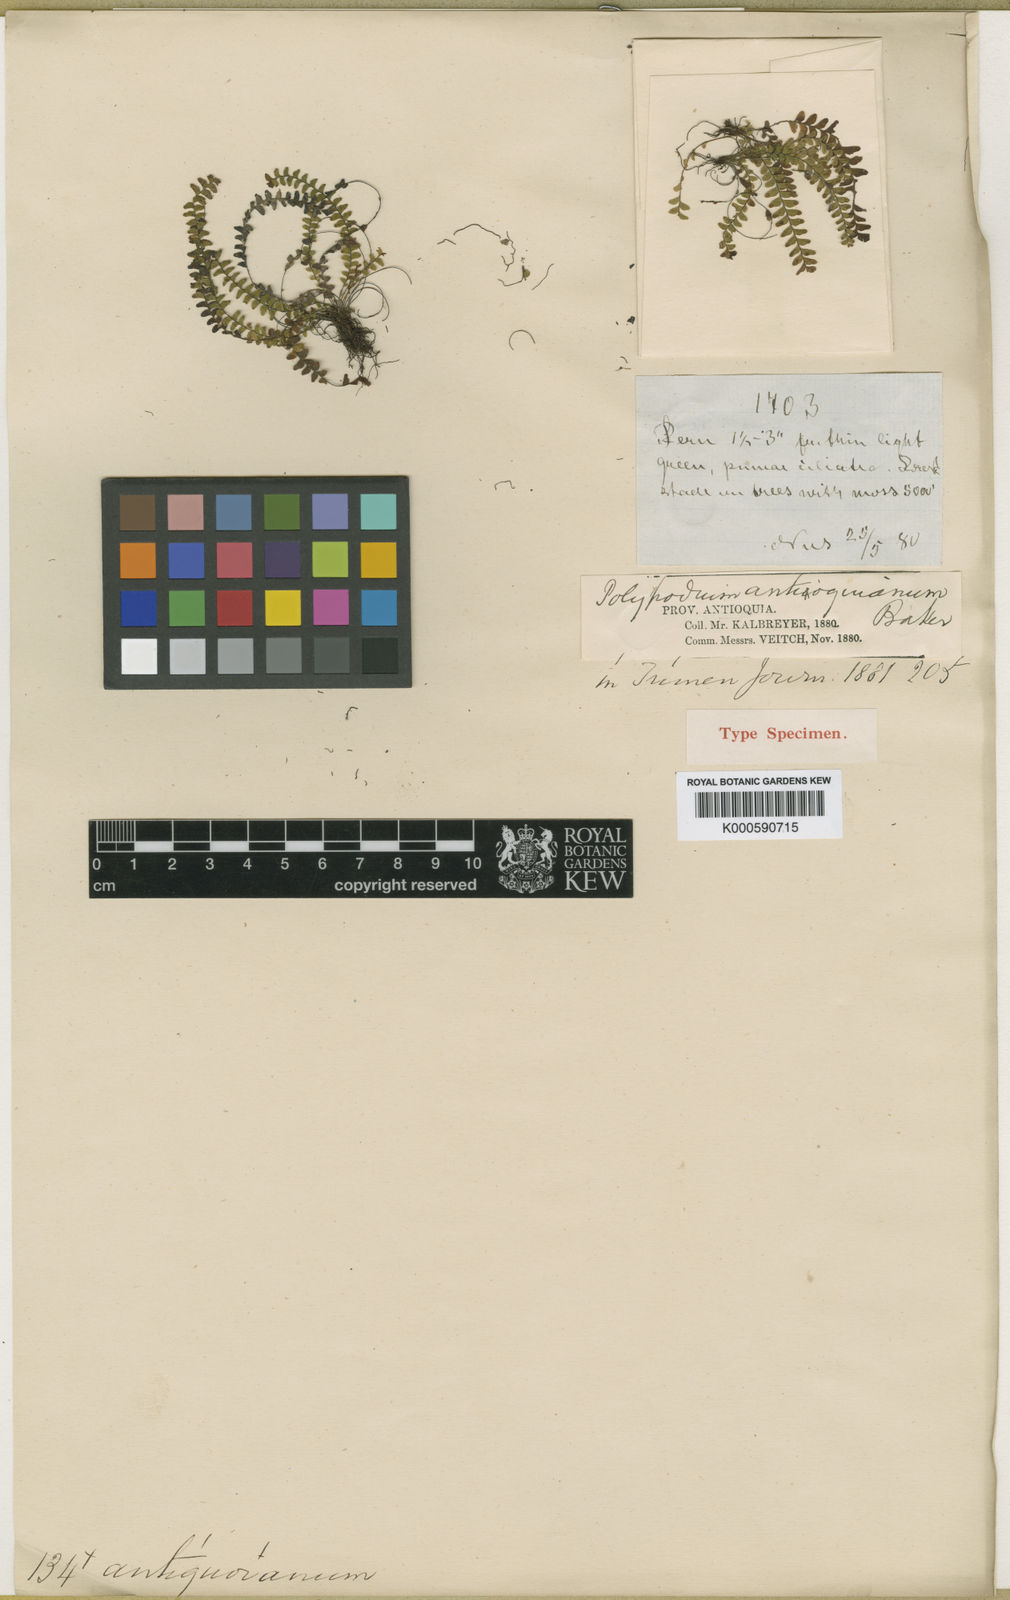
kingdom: Plantae
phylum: Tracheophyta
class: Polypodiopsida
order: Polypodiales
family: Polypodiaceae
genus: Lellingeria
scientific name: Lellingeria
